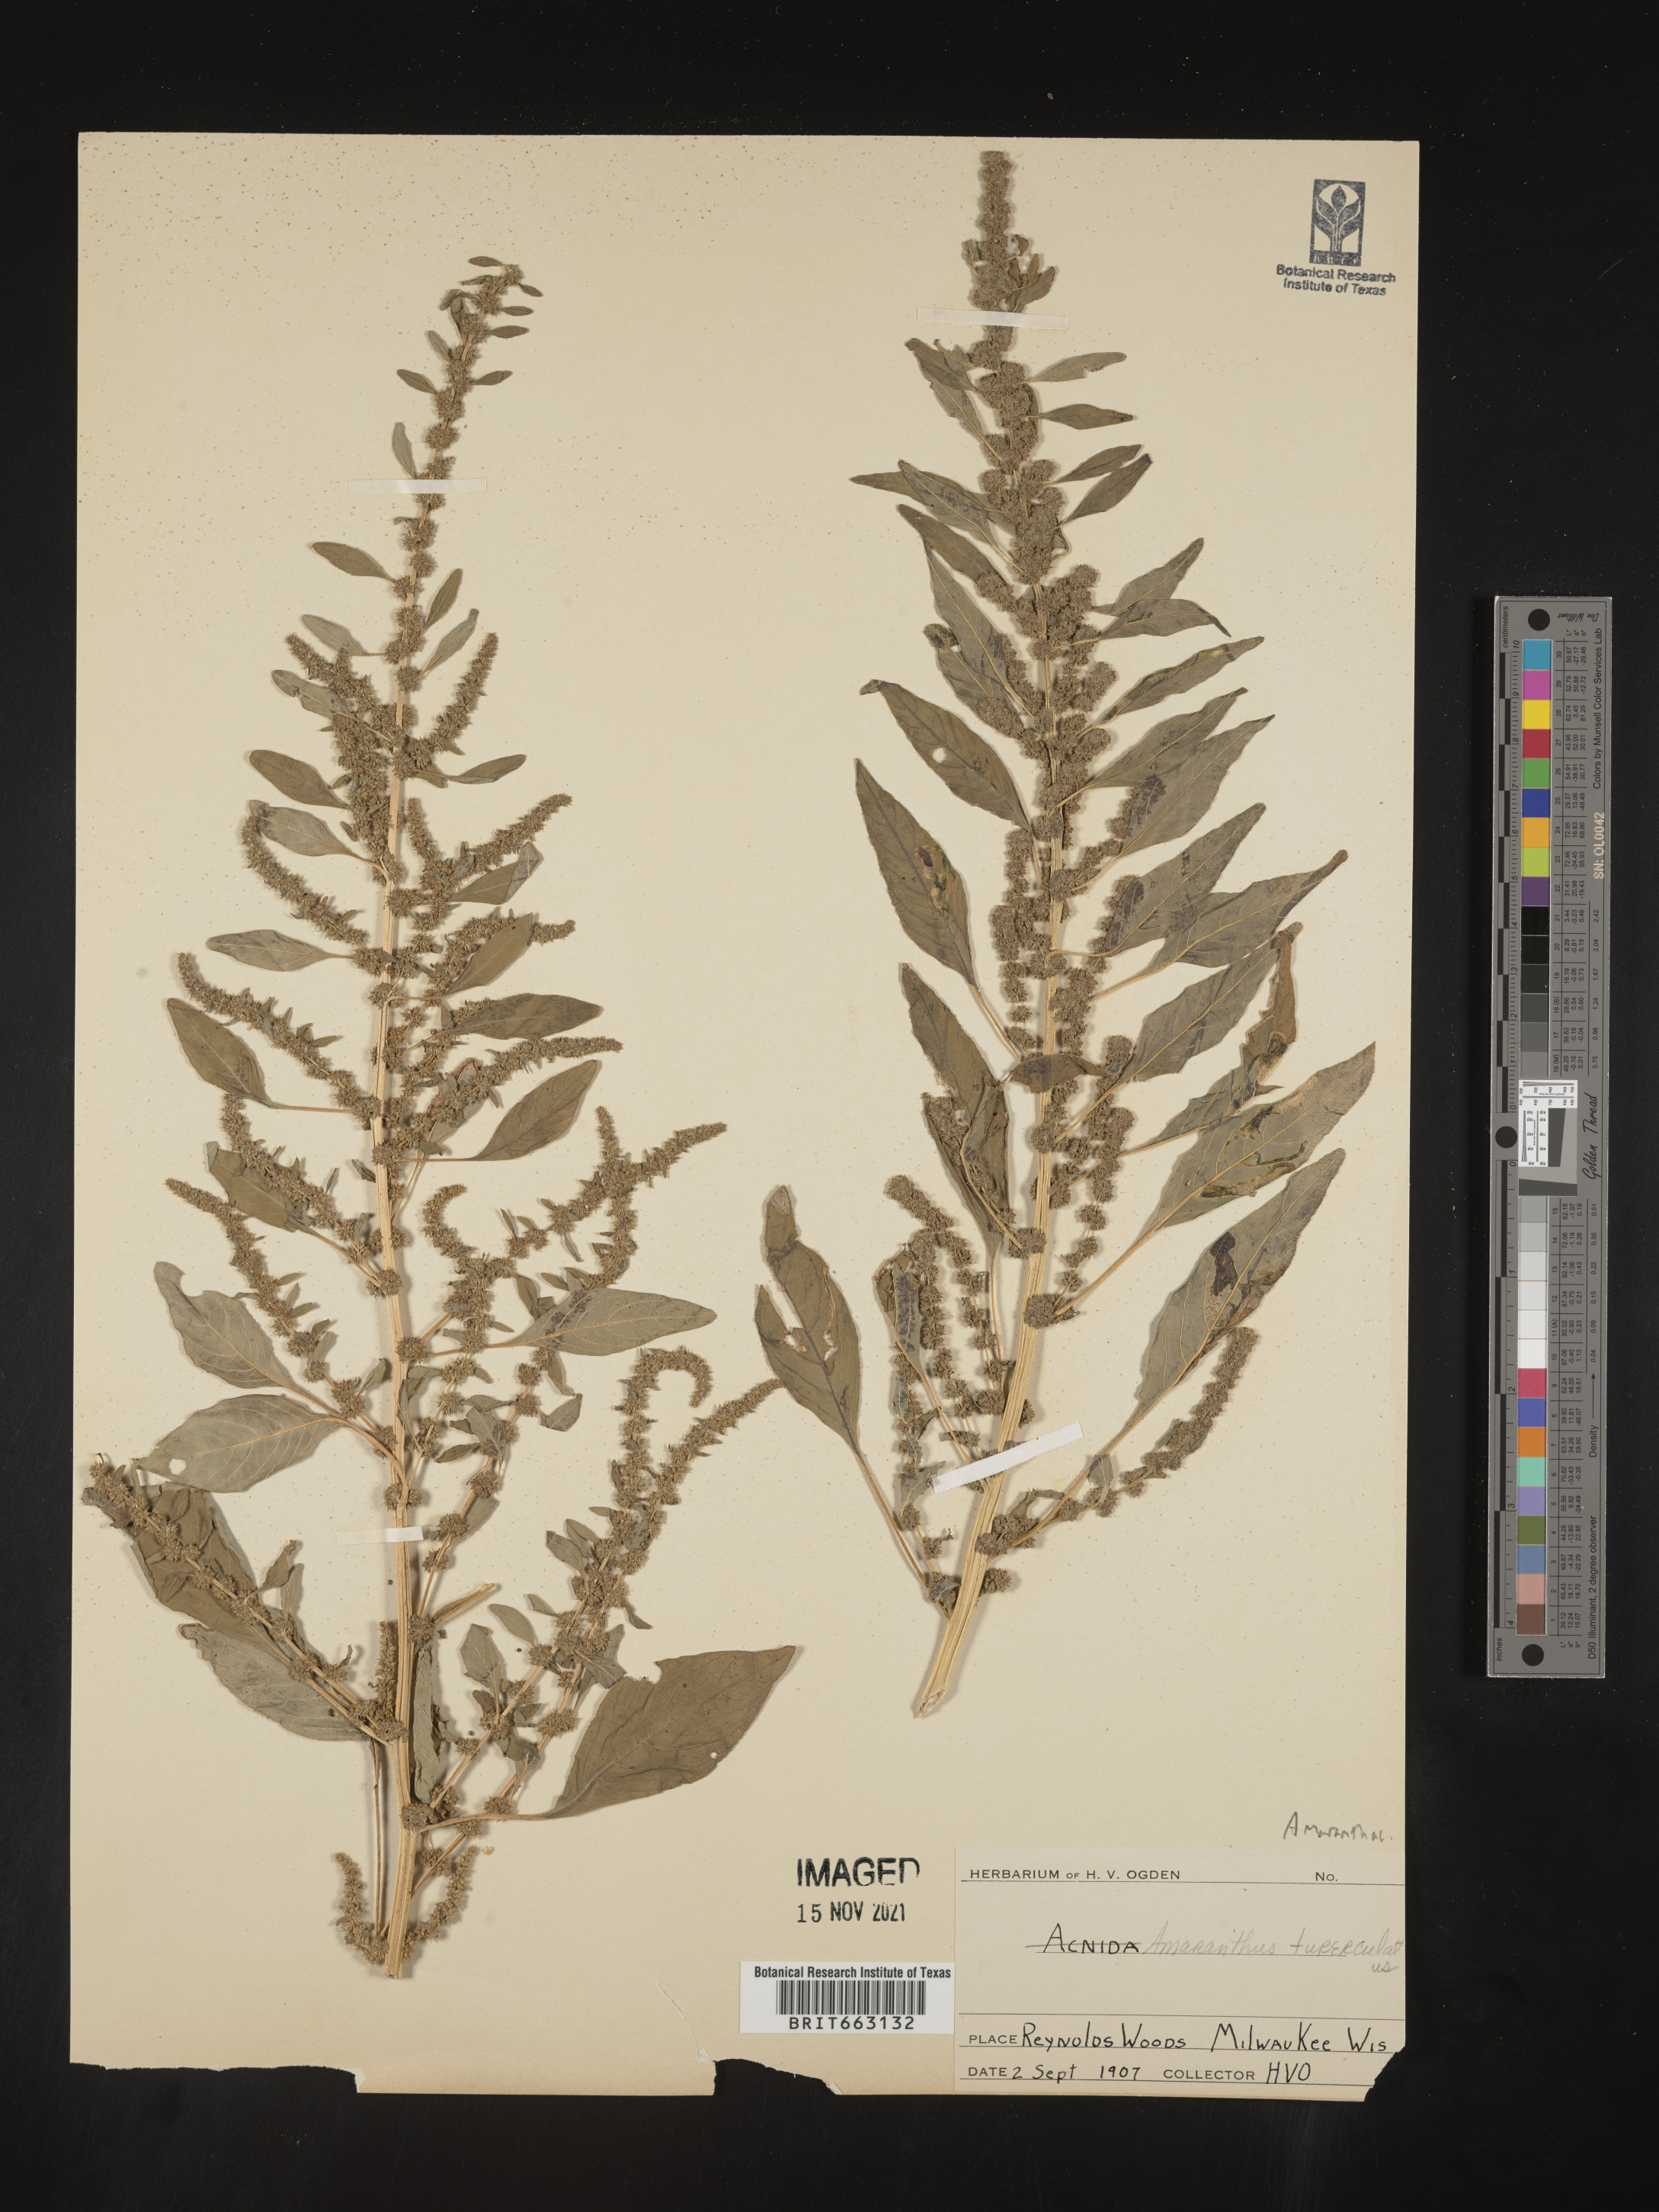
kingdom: Plantae
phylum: Tracheophyta
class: Magnoliopsida
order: Caryophyllales
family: Amaranthaceae
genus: Amaranthus
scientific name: Amaranthus tuberculatus
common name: Rough-fruit amaranth
